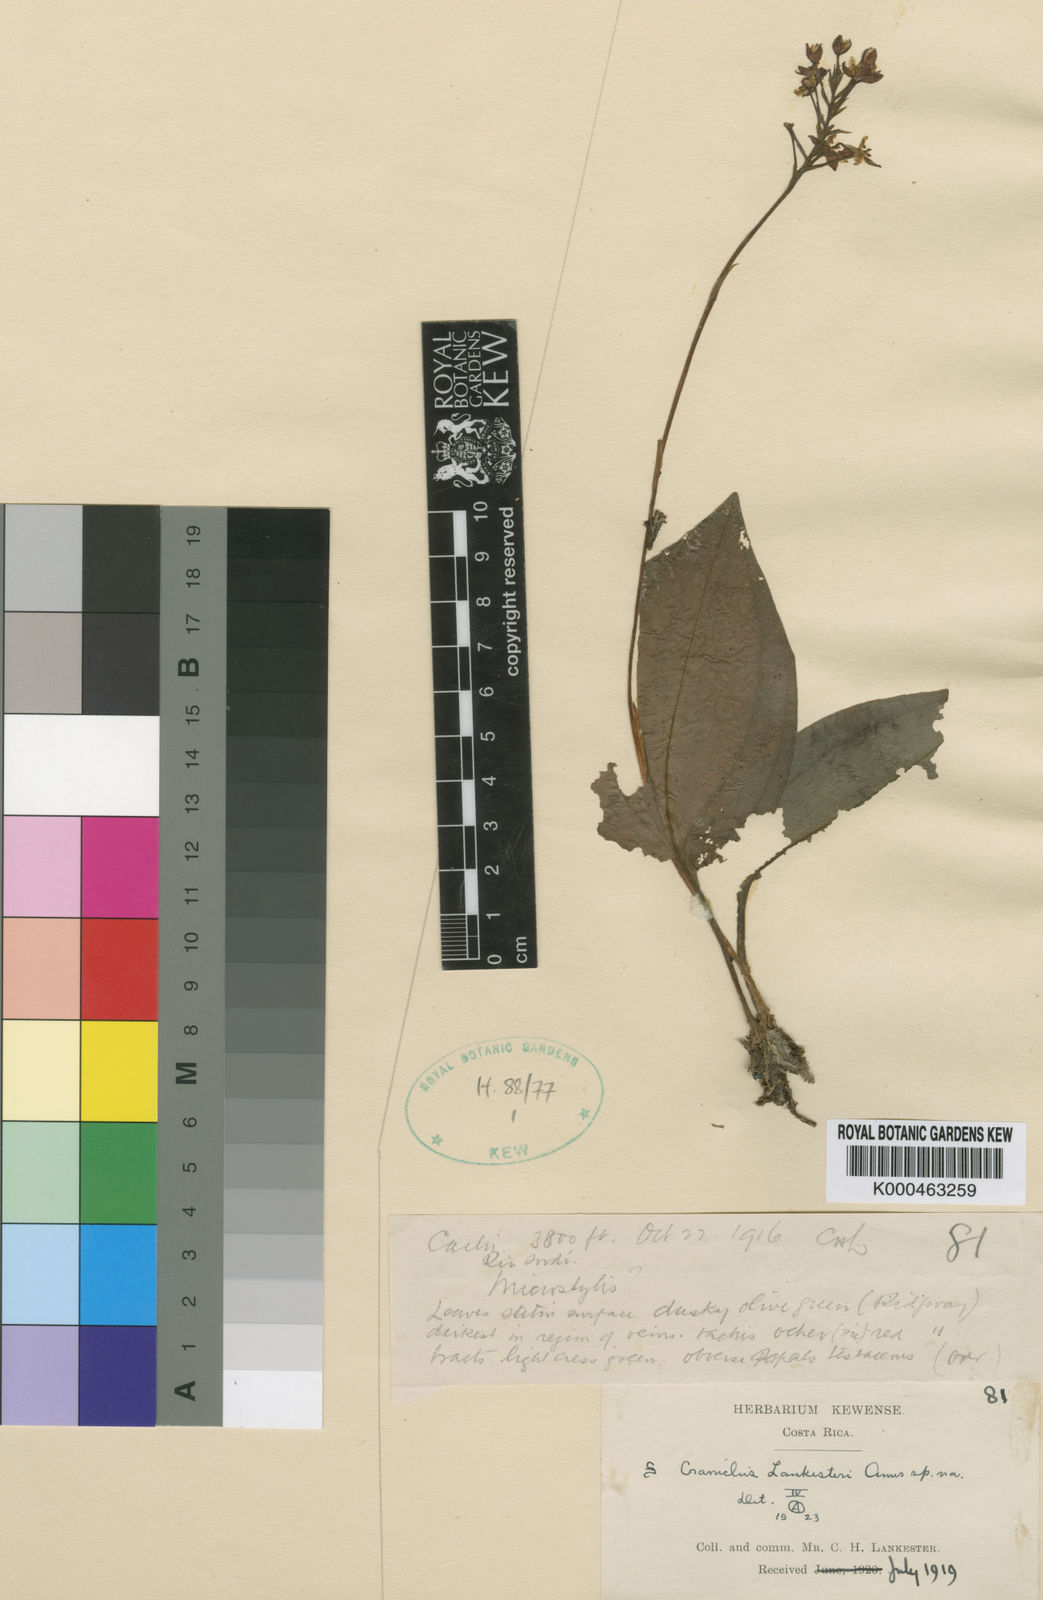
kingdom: Plantae
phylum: Tracheophyta
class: Liliopsida
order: Asparagales
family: Orchidaceae
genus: Cranichis
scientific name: Cranichis lankesteri
